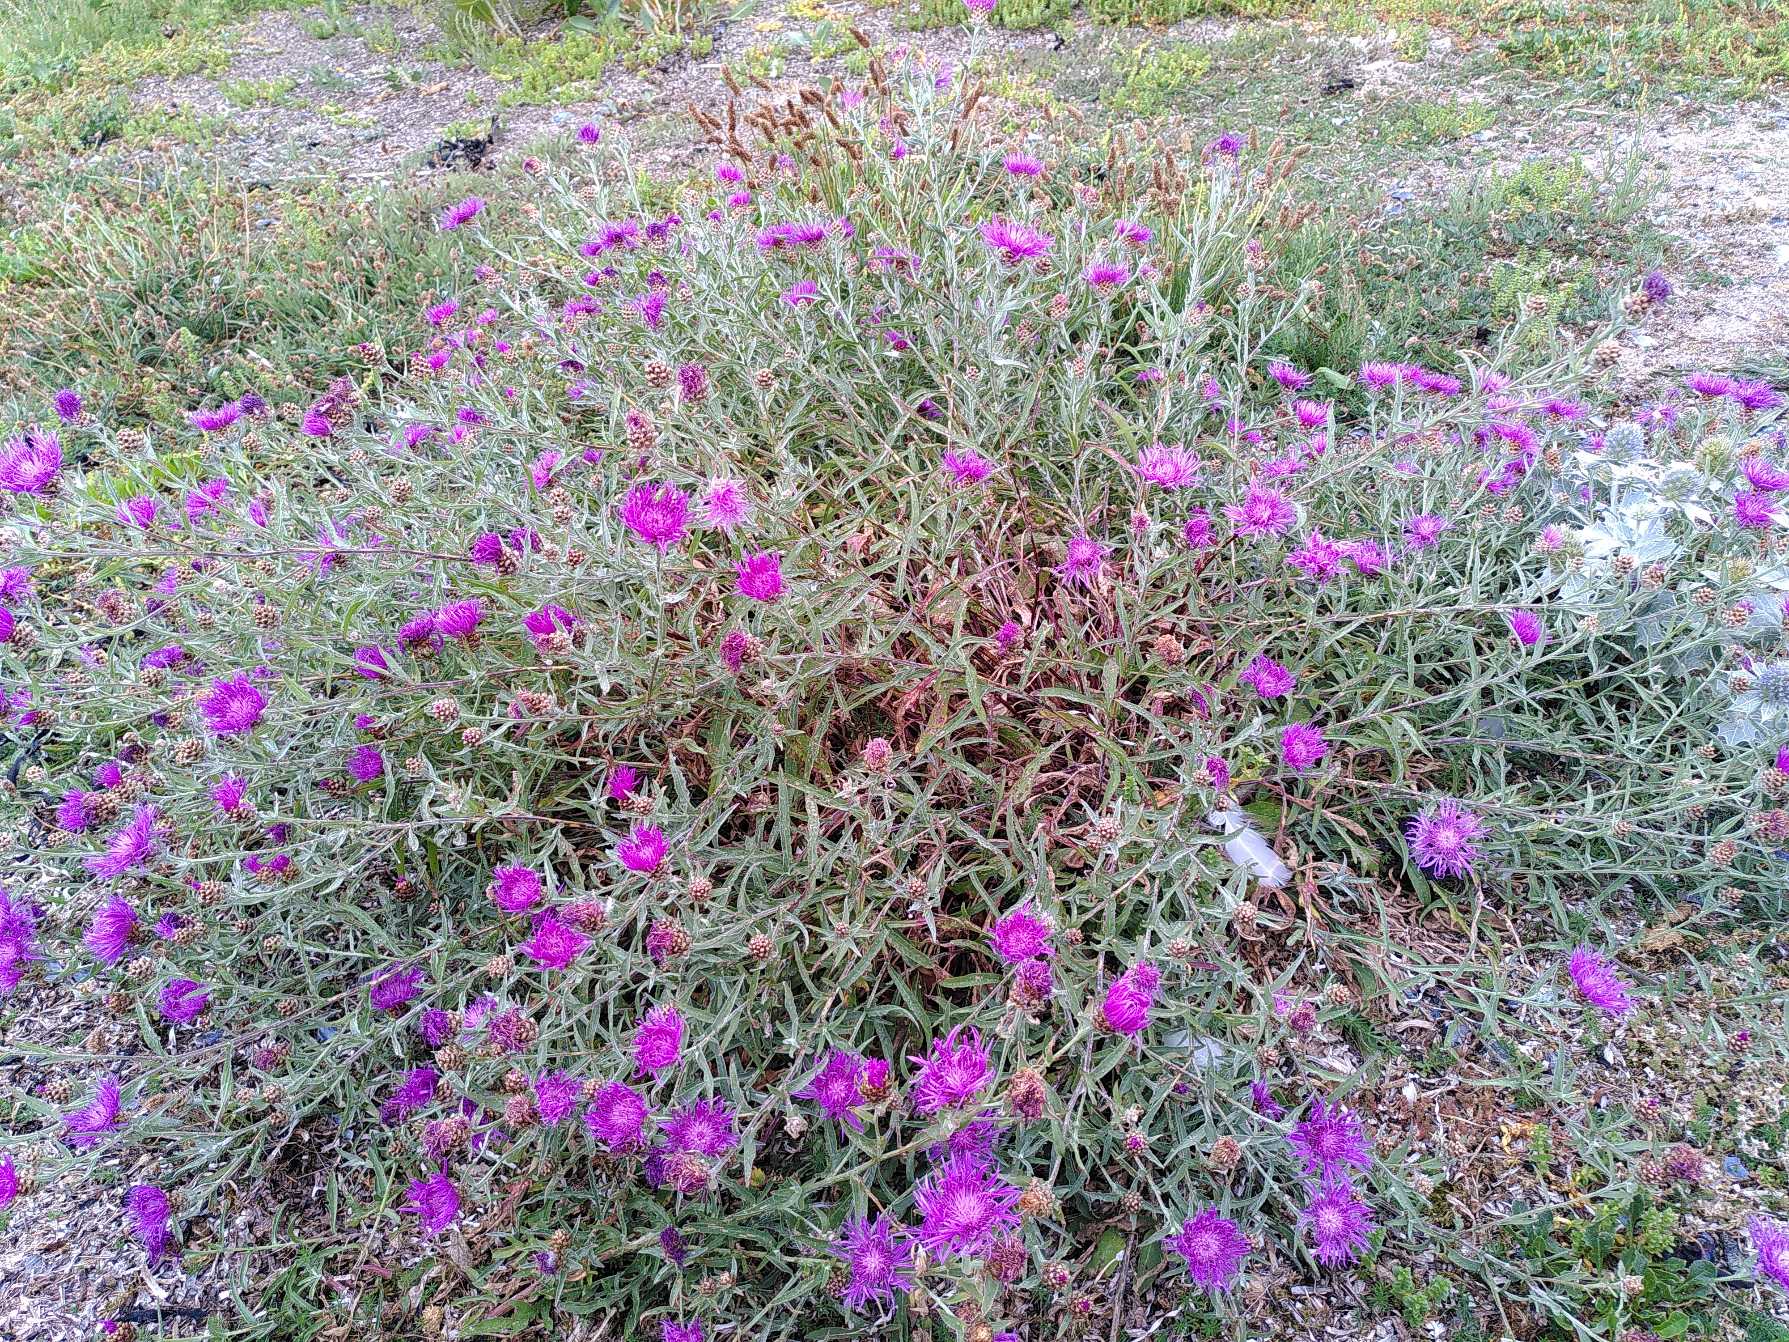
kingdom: Plantae
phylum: Tracheophyta
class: Magnoliopsida
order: Asterales
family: Asteraceae
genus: Centaurea
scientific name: Centaurea jacea
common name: Almindelig knopurt
